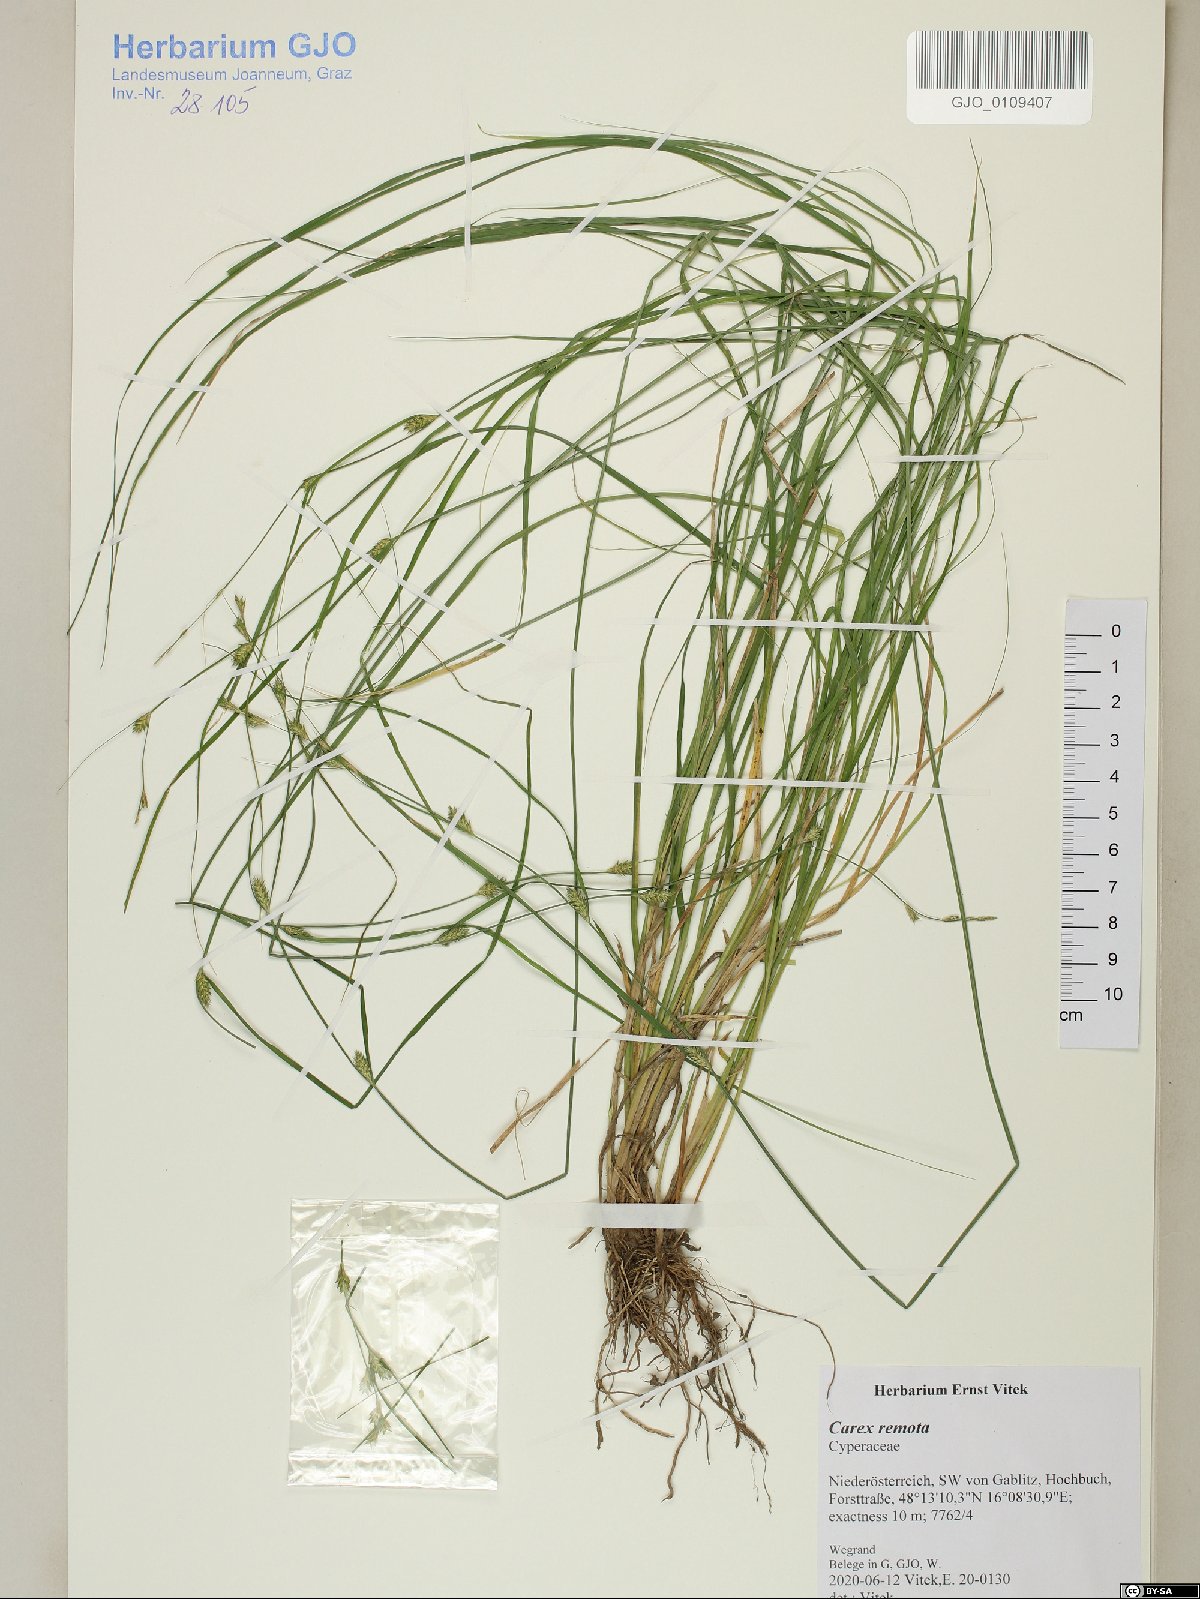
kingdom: Plantae
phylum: Tracheophyta
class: Liliopsida
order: Poales
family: Cyperaceae
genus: Carex
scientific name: Carex remota
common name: Remote sedge
